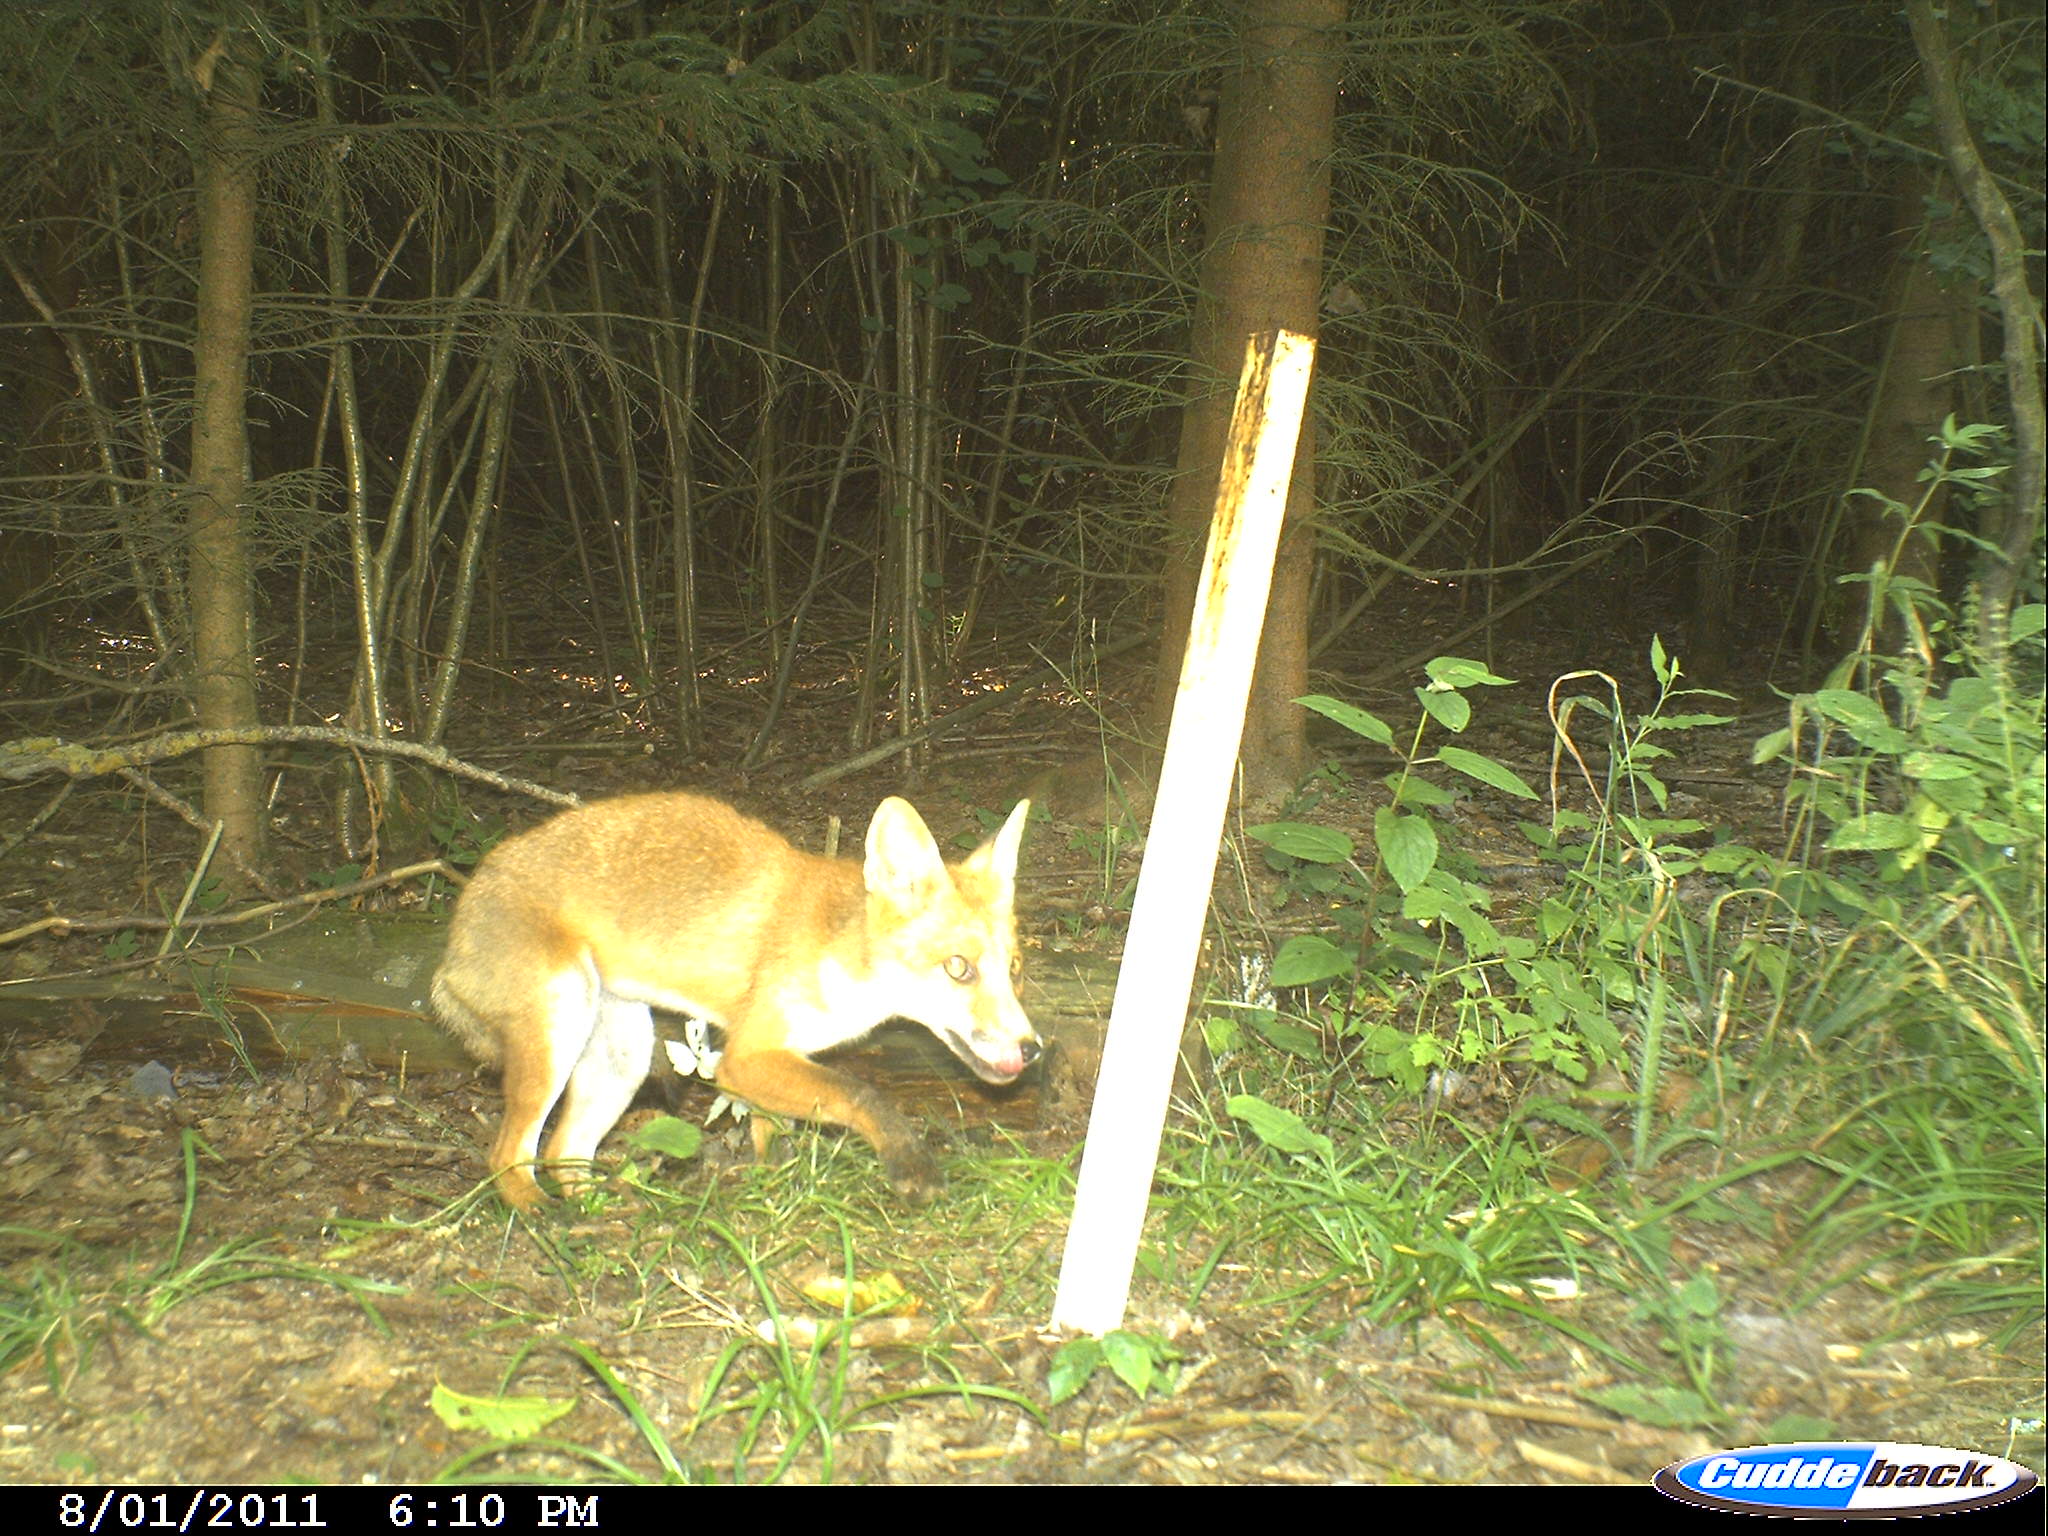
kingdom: Animalia
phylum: Chordata
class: Mammalia
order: Carnivora
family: Canidae
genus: Vulpes
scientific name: Vulpes vulpes
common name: Red fox
